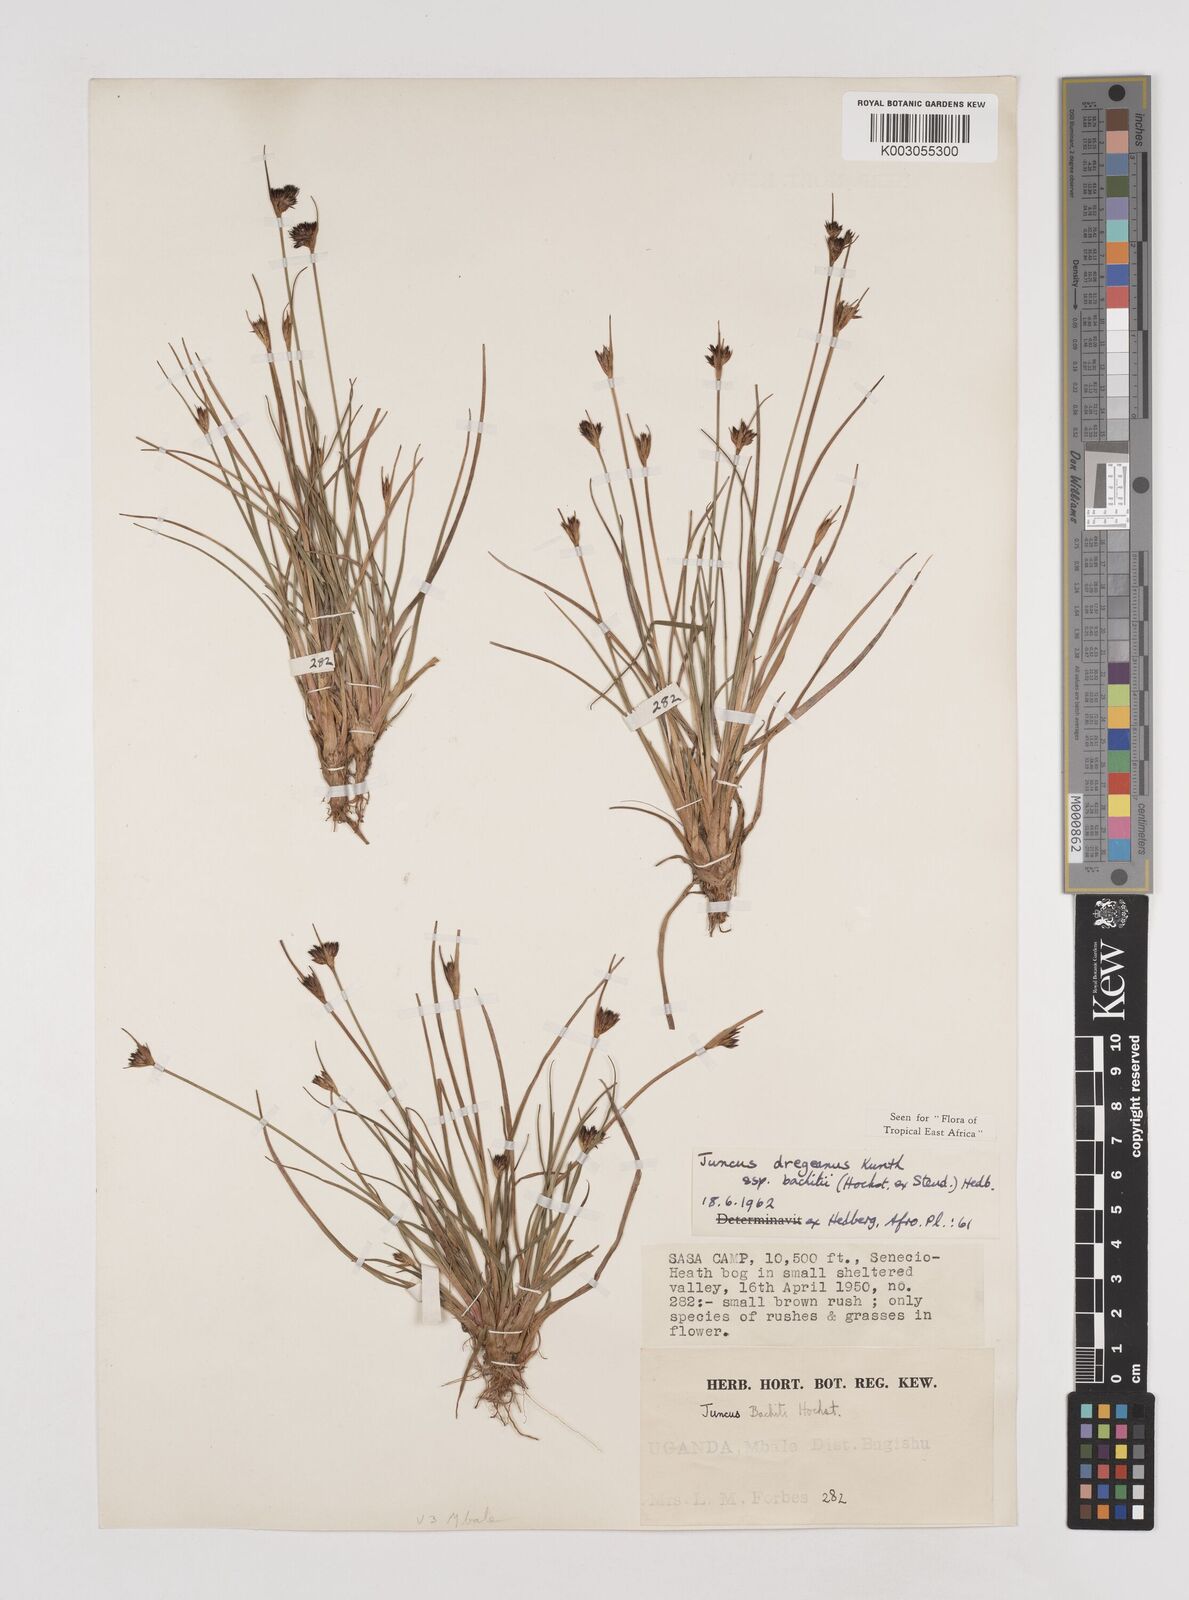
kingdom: Plantae
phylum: Tracheophyta
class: Liliopsida
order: Poales
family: Juncaceae
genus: Juncus
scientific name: Juncus dregeanus
